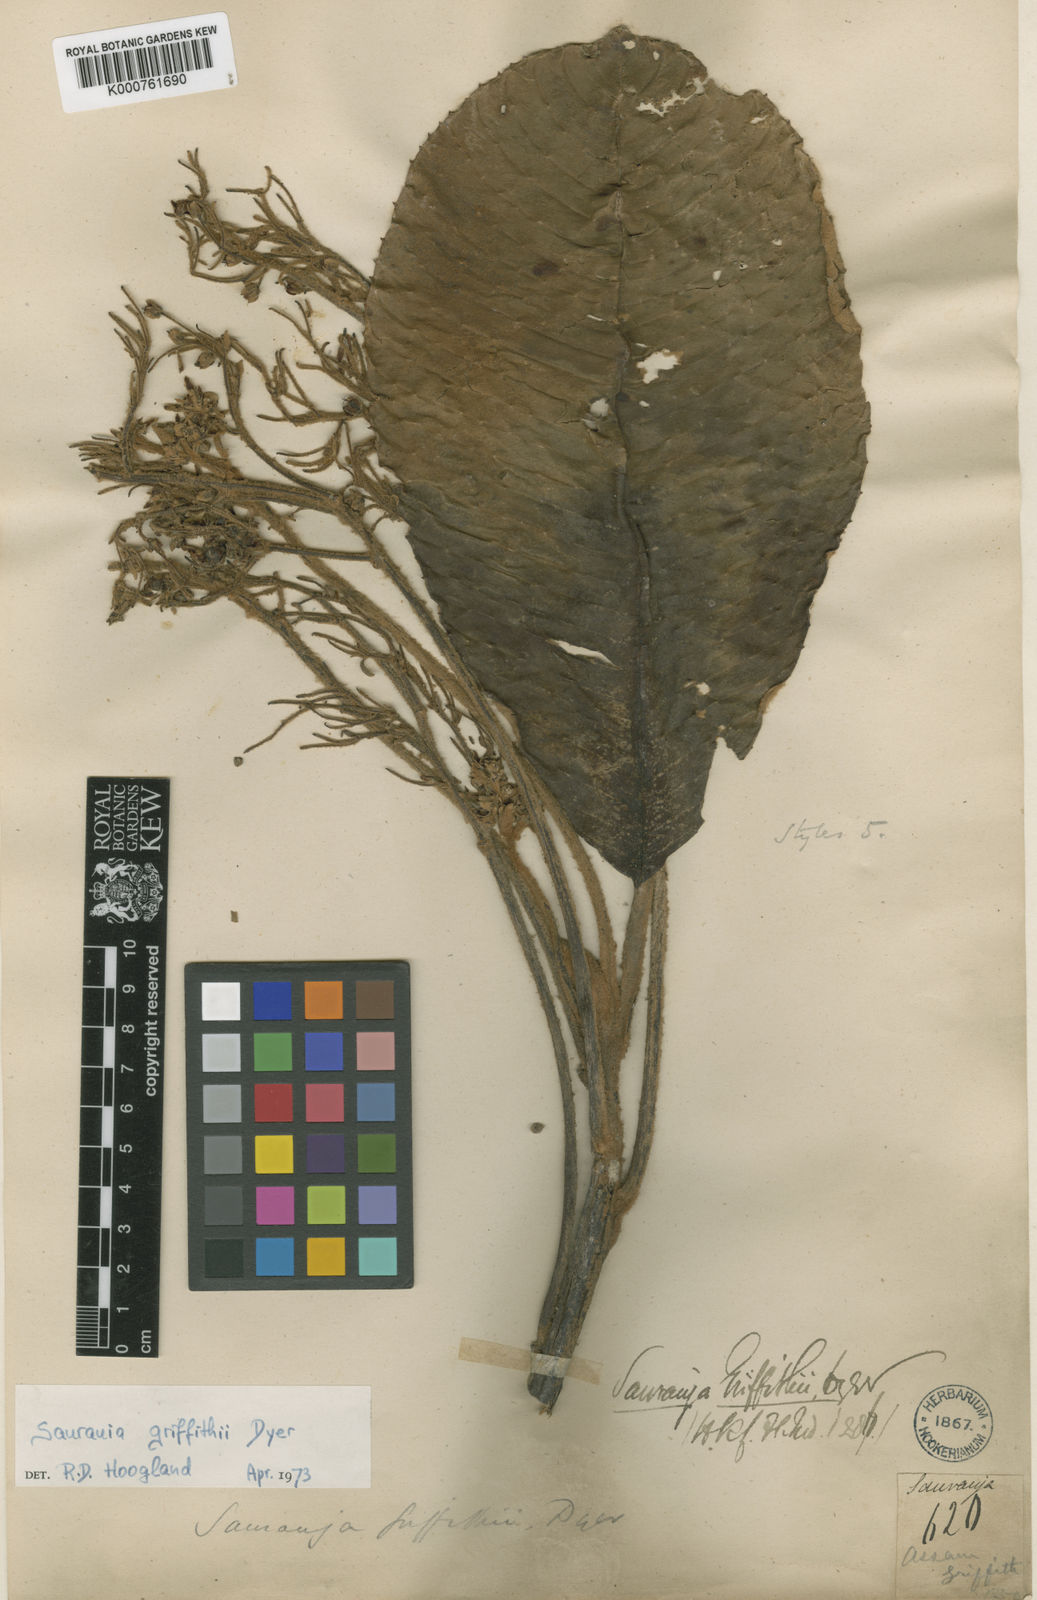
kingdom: Plantae
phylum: Tracheophyta
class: Magnoliopsida
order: Ericales
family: Actinidiaceae
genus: Saurauia
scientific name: Saurauia griffithii
